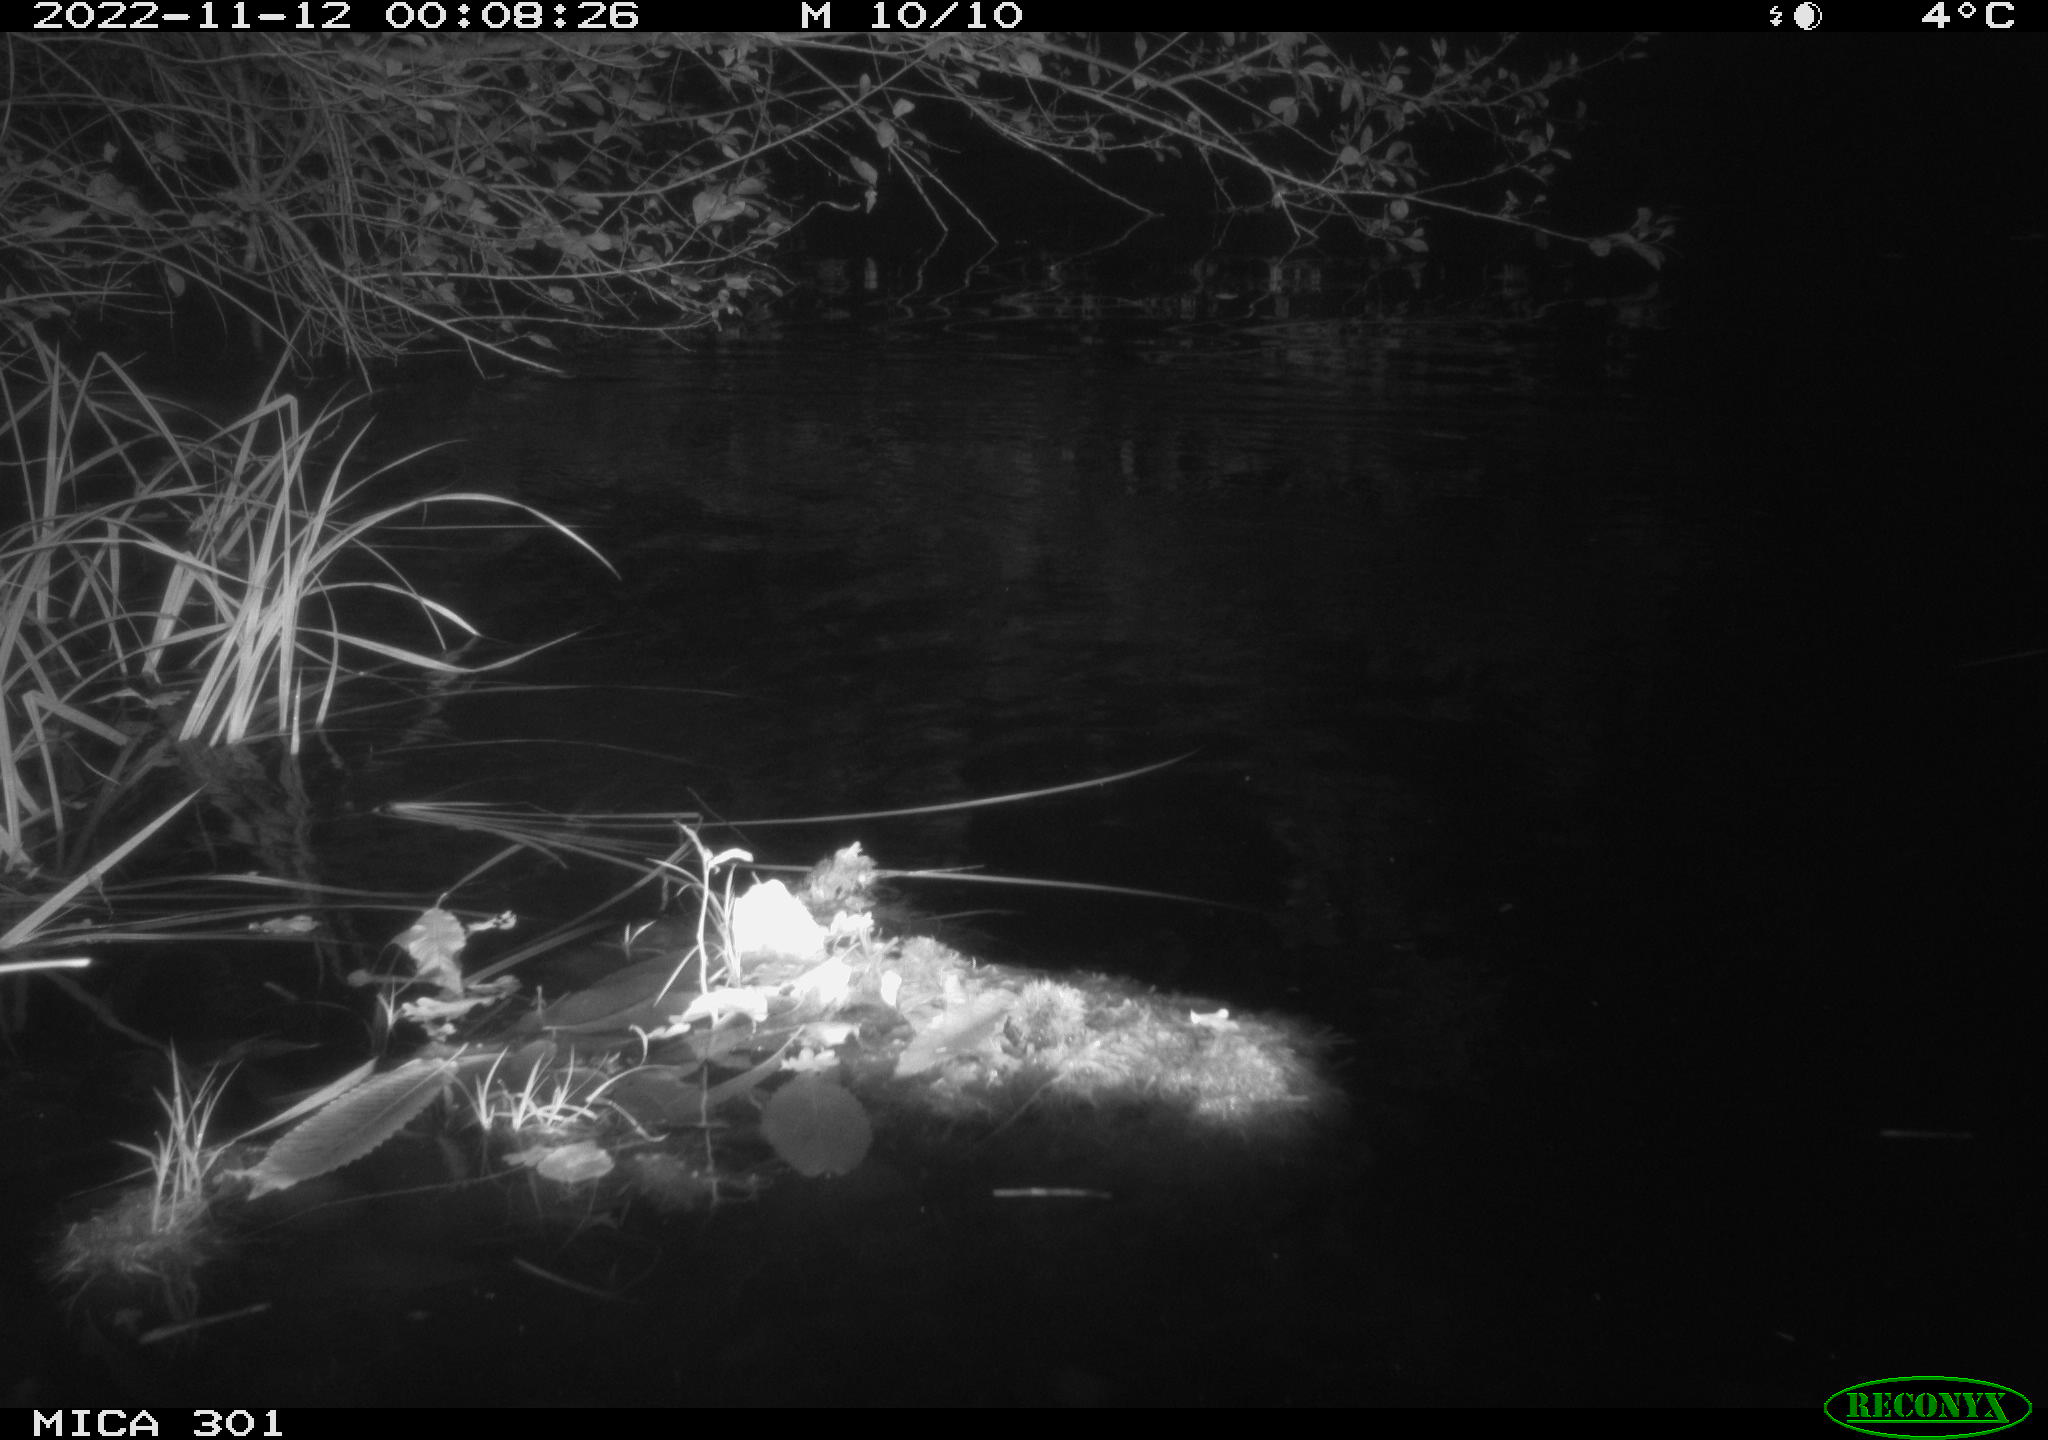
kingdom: Animalia
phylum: Chordata
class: Mammalia
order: Rodentia
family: Castoridae
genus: Castor
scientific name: Castor fiber
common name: Eurasian beaver
